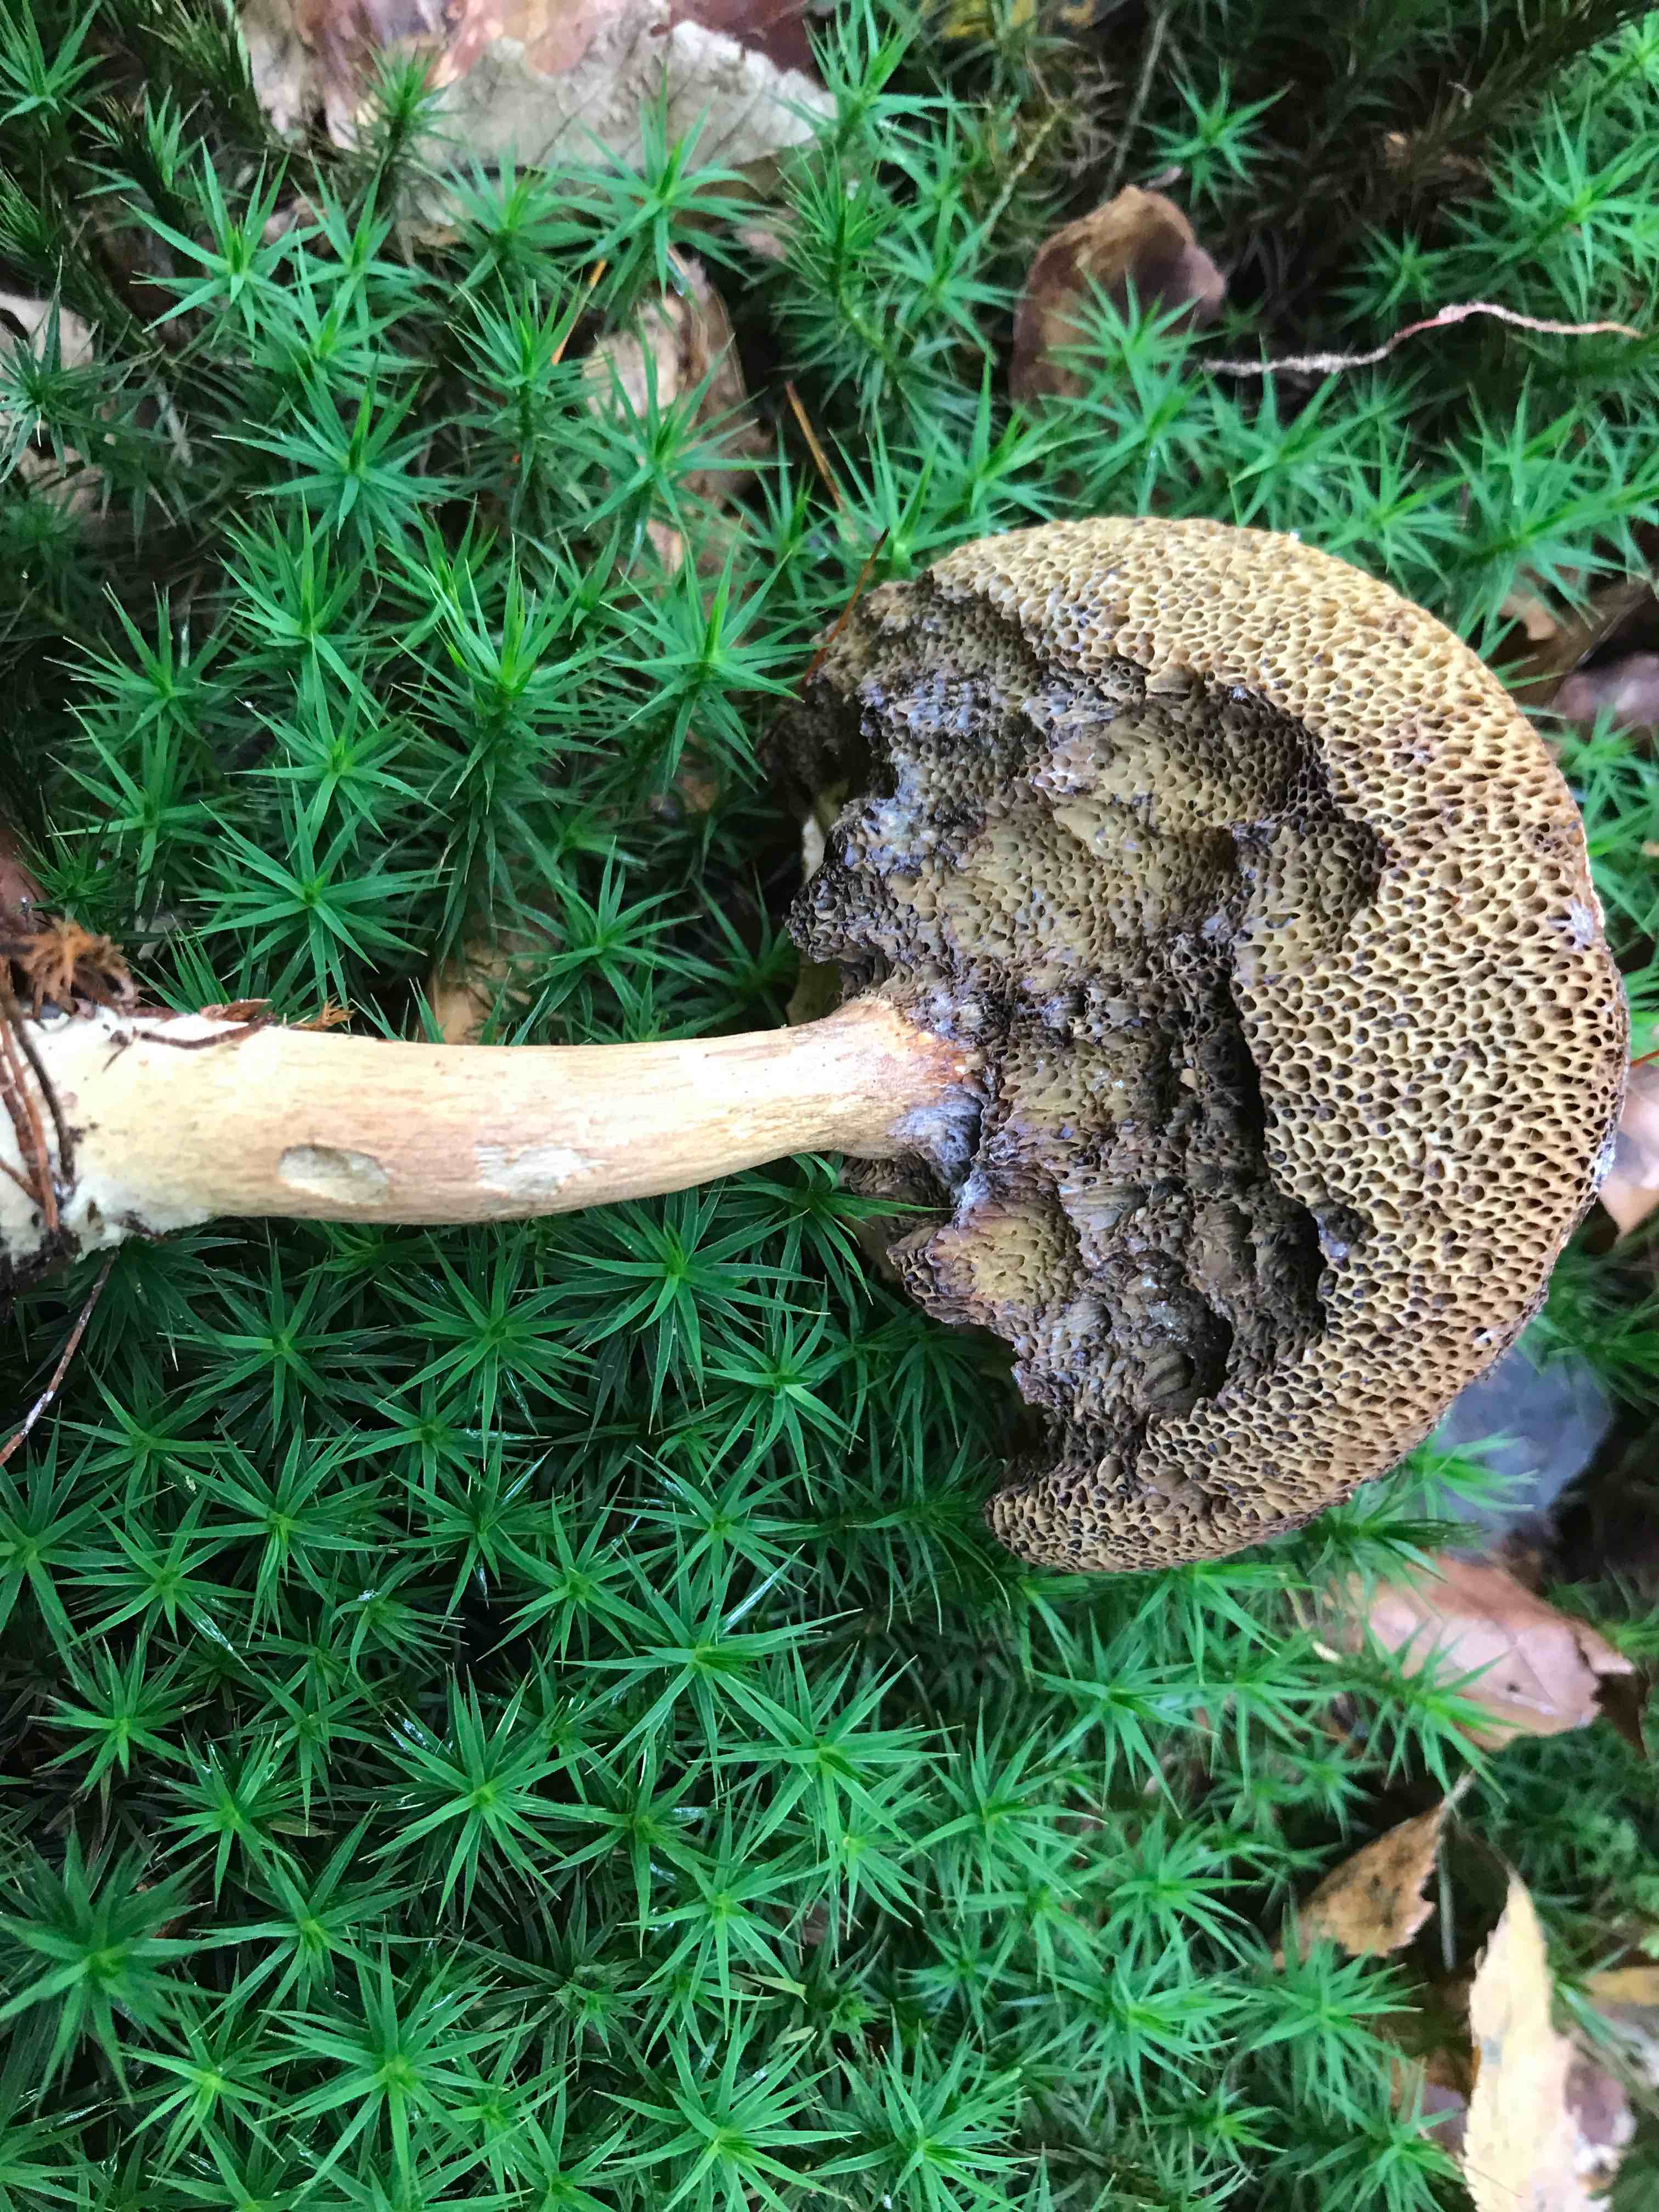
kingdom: Fungi
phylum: Basidiomycota
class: Agaricomycetes
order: Boletales
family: Boletaceae
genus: Imleria
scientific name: Imleria badia
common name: brunstokket rørhat
